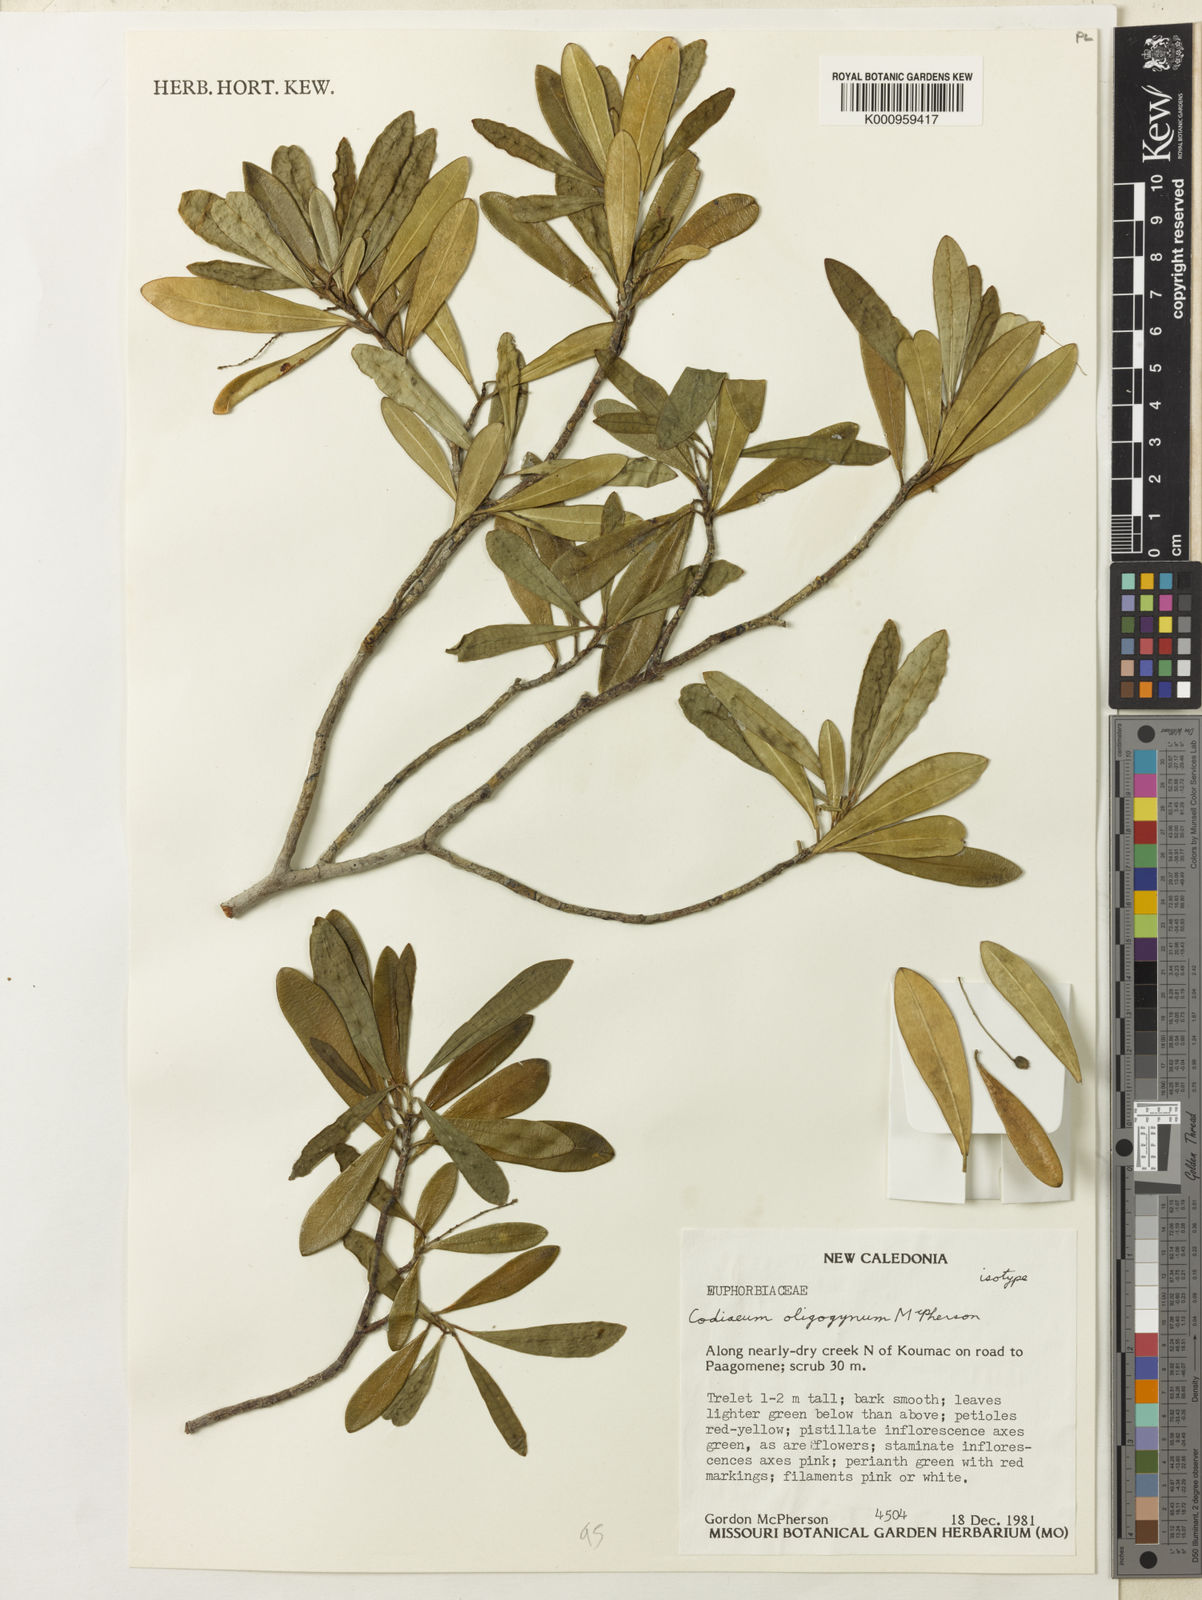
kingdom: Plantae
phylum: Tracheophyta
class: Magnoliopsida
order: Malpighiales
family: Euphorbiaceae
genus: Codiaeum
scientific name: Codiaeum oligogynum
